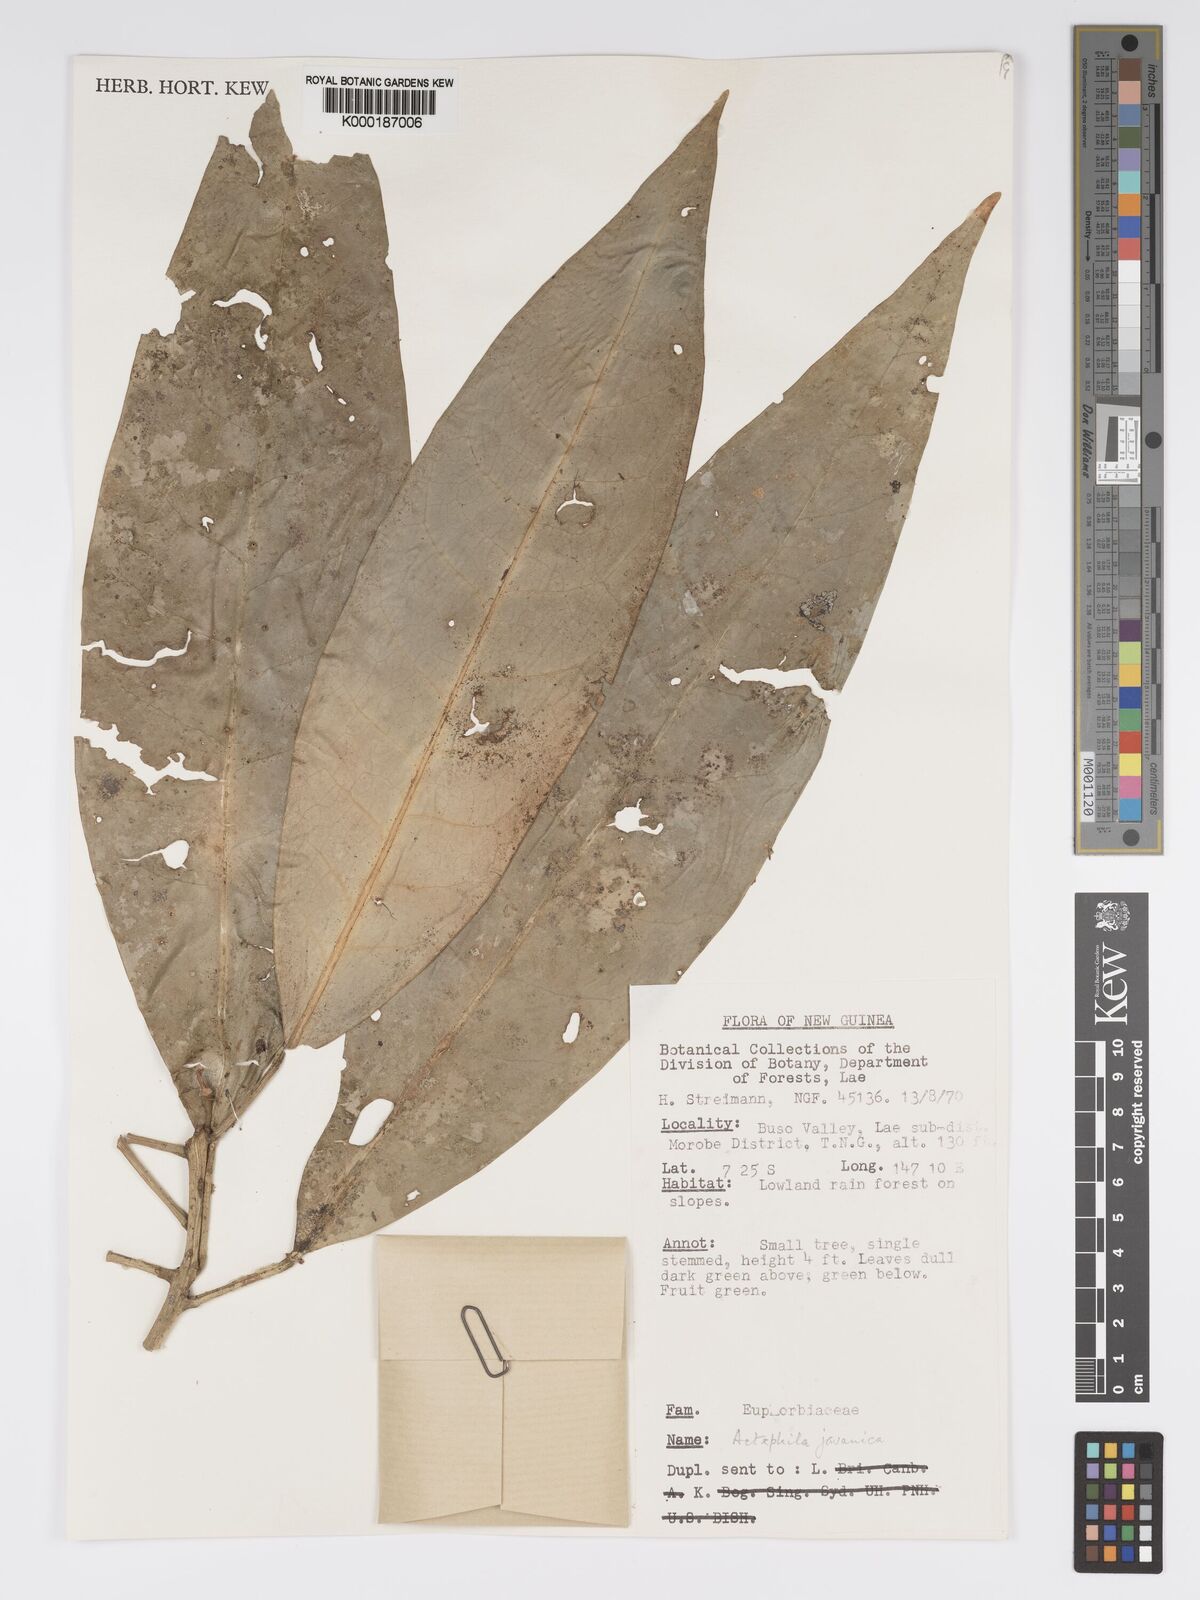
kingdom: Plantae
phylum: Tracheophyta
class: Magnoliopsida
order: Malpighiales
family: Phyllanthaceae
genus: Actephila
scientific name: Actephila
